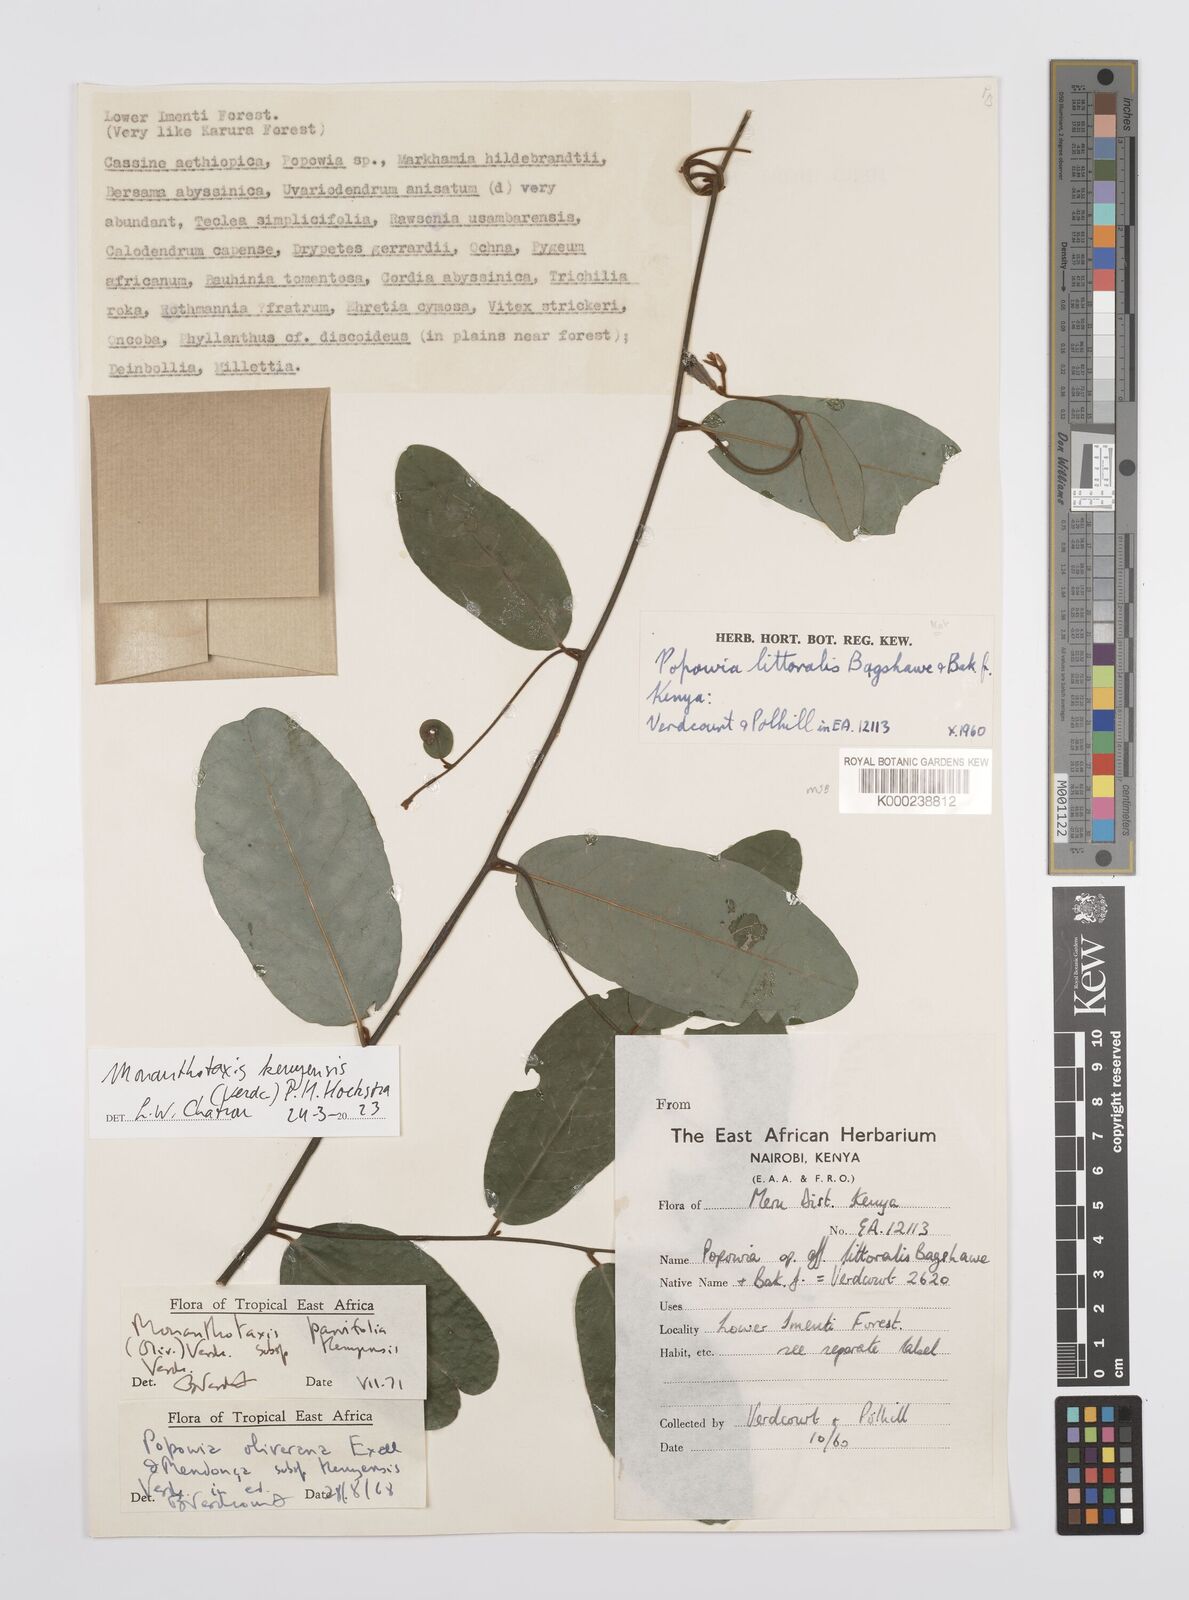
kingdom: Plantae
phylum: Tracheophyta
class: Magnoliopsida
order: Magnoliales
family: Annonaceae
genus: Monanthotaxis
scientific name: Monanthotaxis parvifolia
